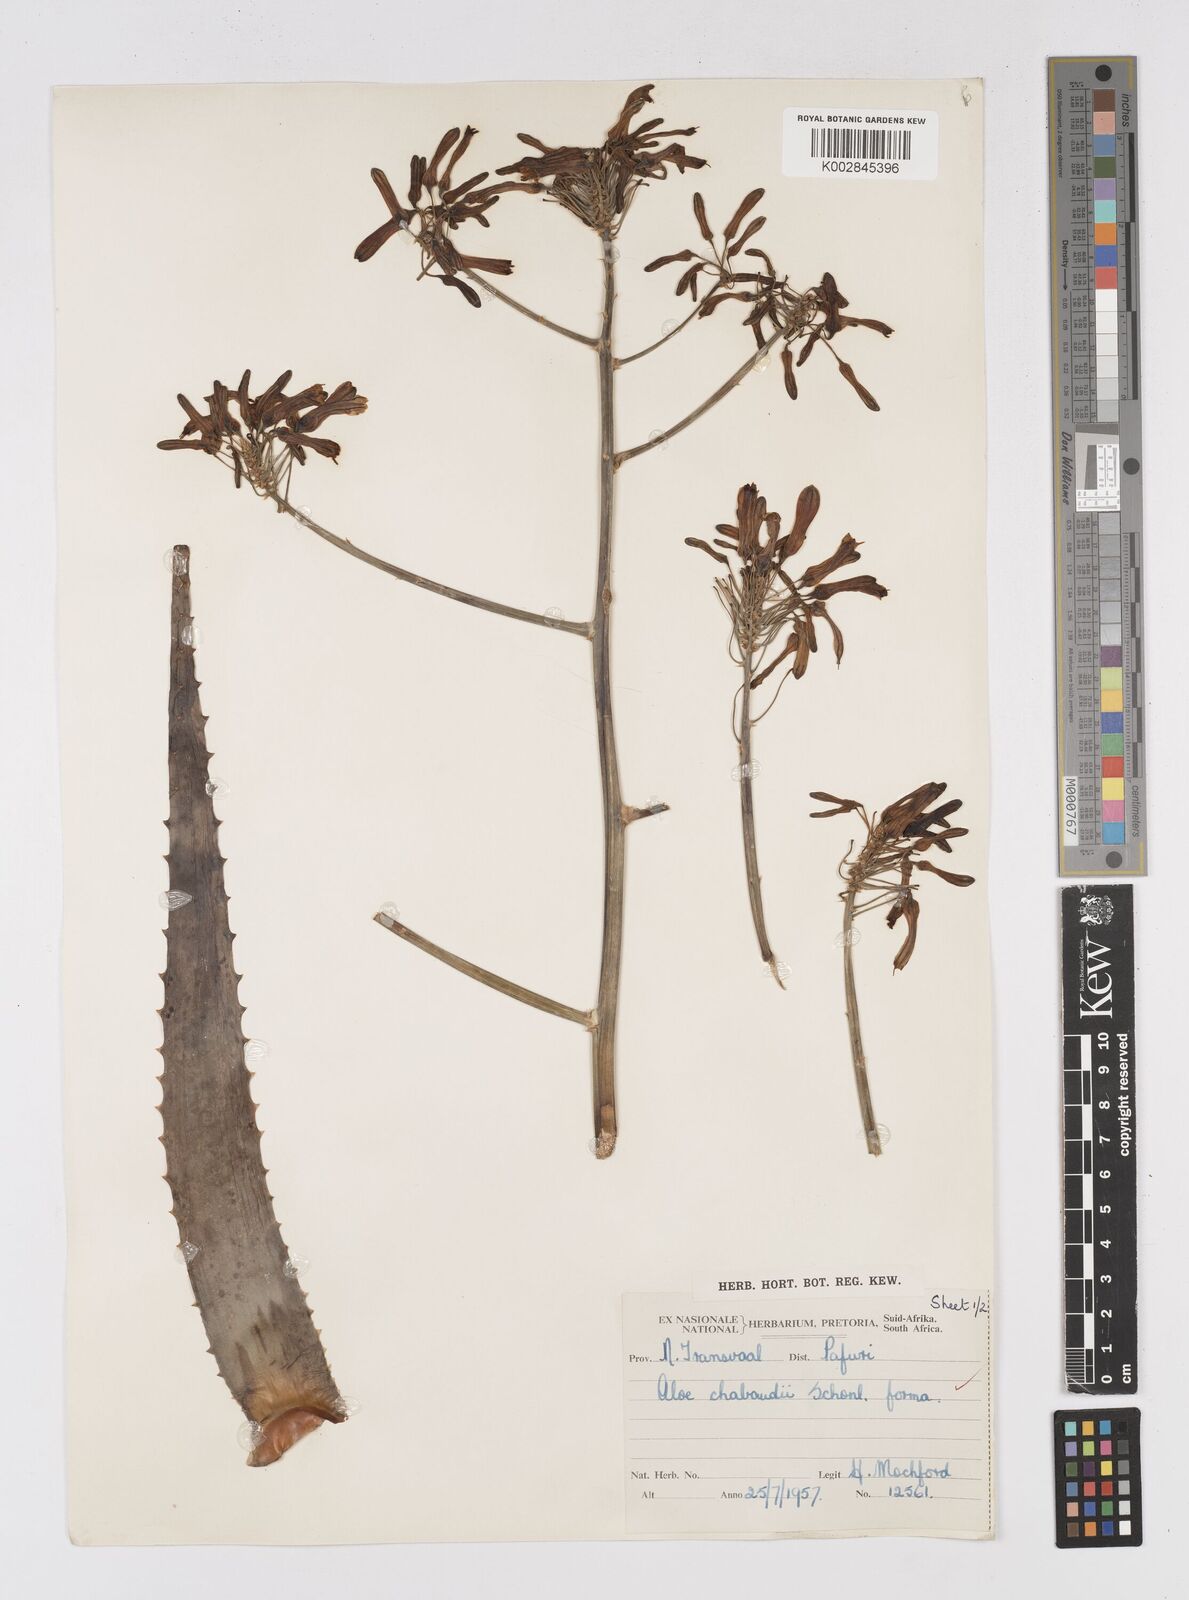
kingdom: Plantae
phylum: Tracheophyta
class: Liliopsida
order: Asparagales
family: Asphodelaceae
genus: Aloe
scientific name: Aloe chabaudii
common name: Chabaud's aloe
